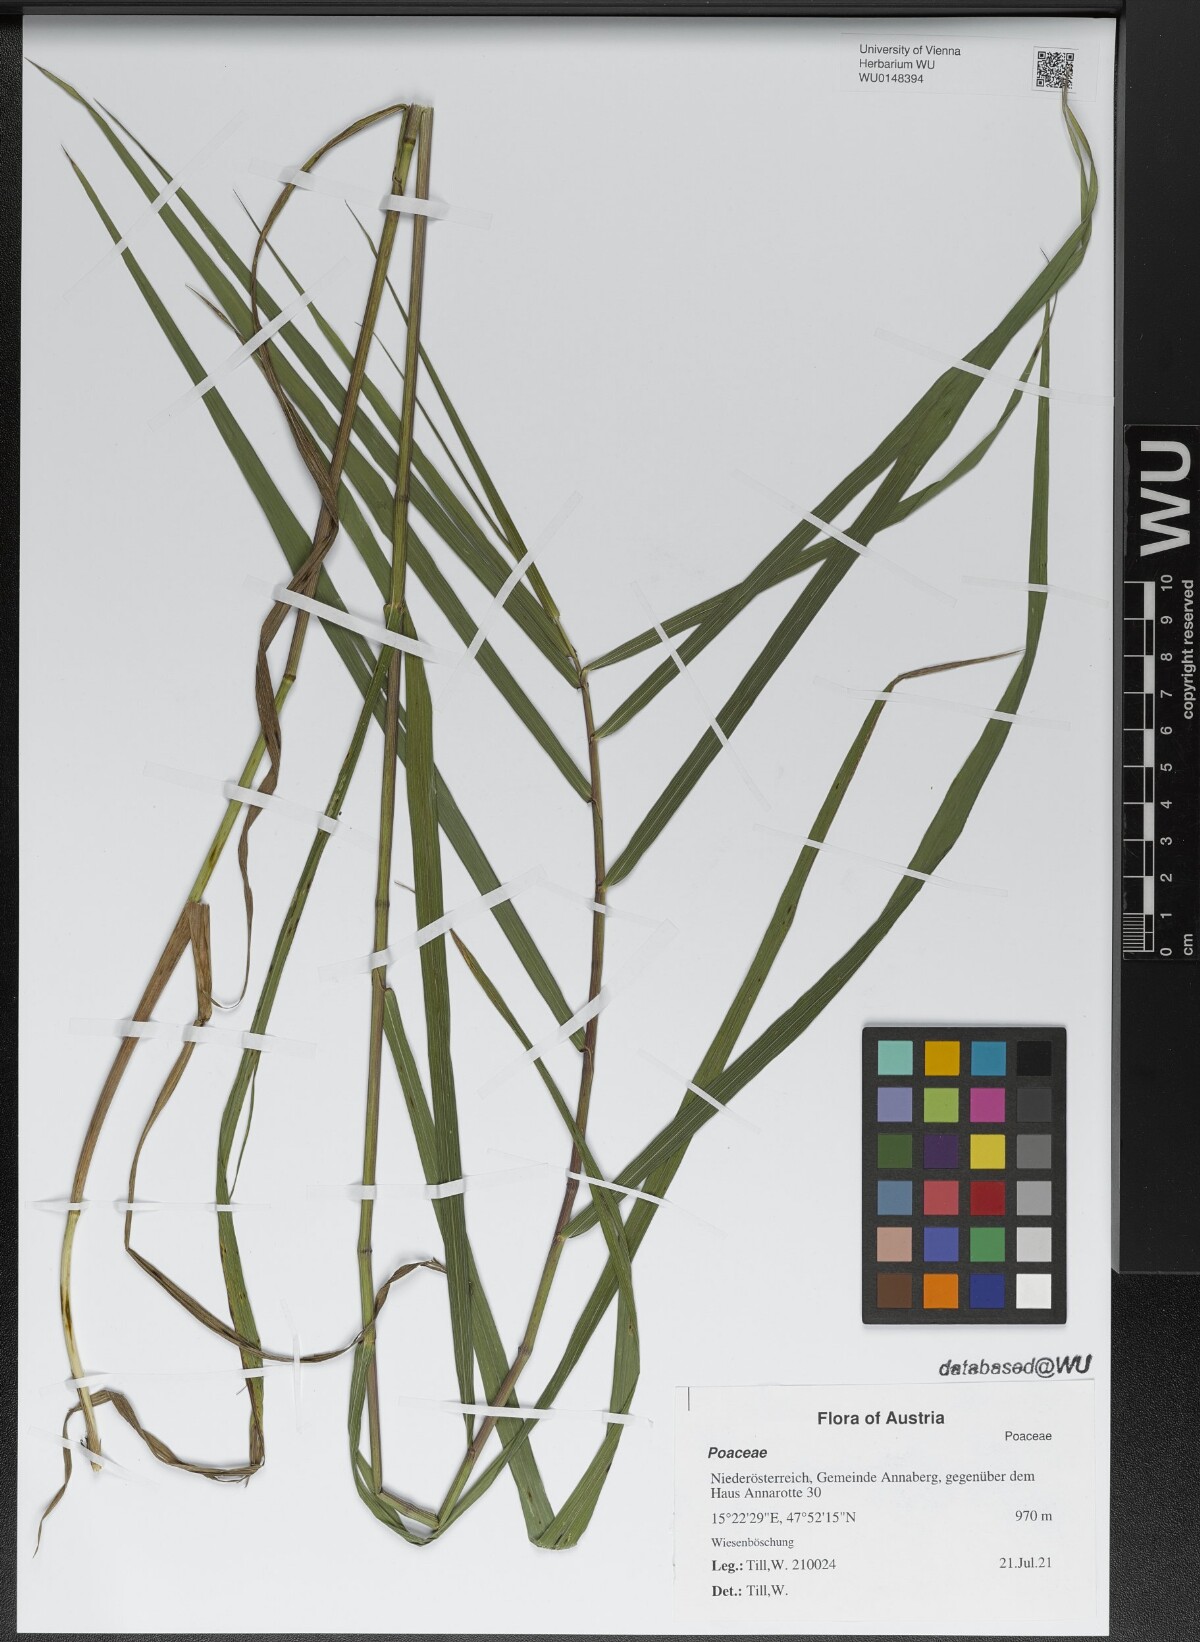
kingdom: Plantae
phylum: Tracheophyta
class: Liliopsida
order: Poales
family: Poaceae
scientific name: Poaceae
